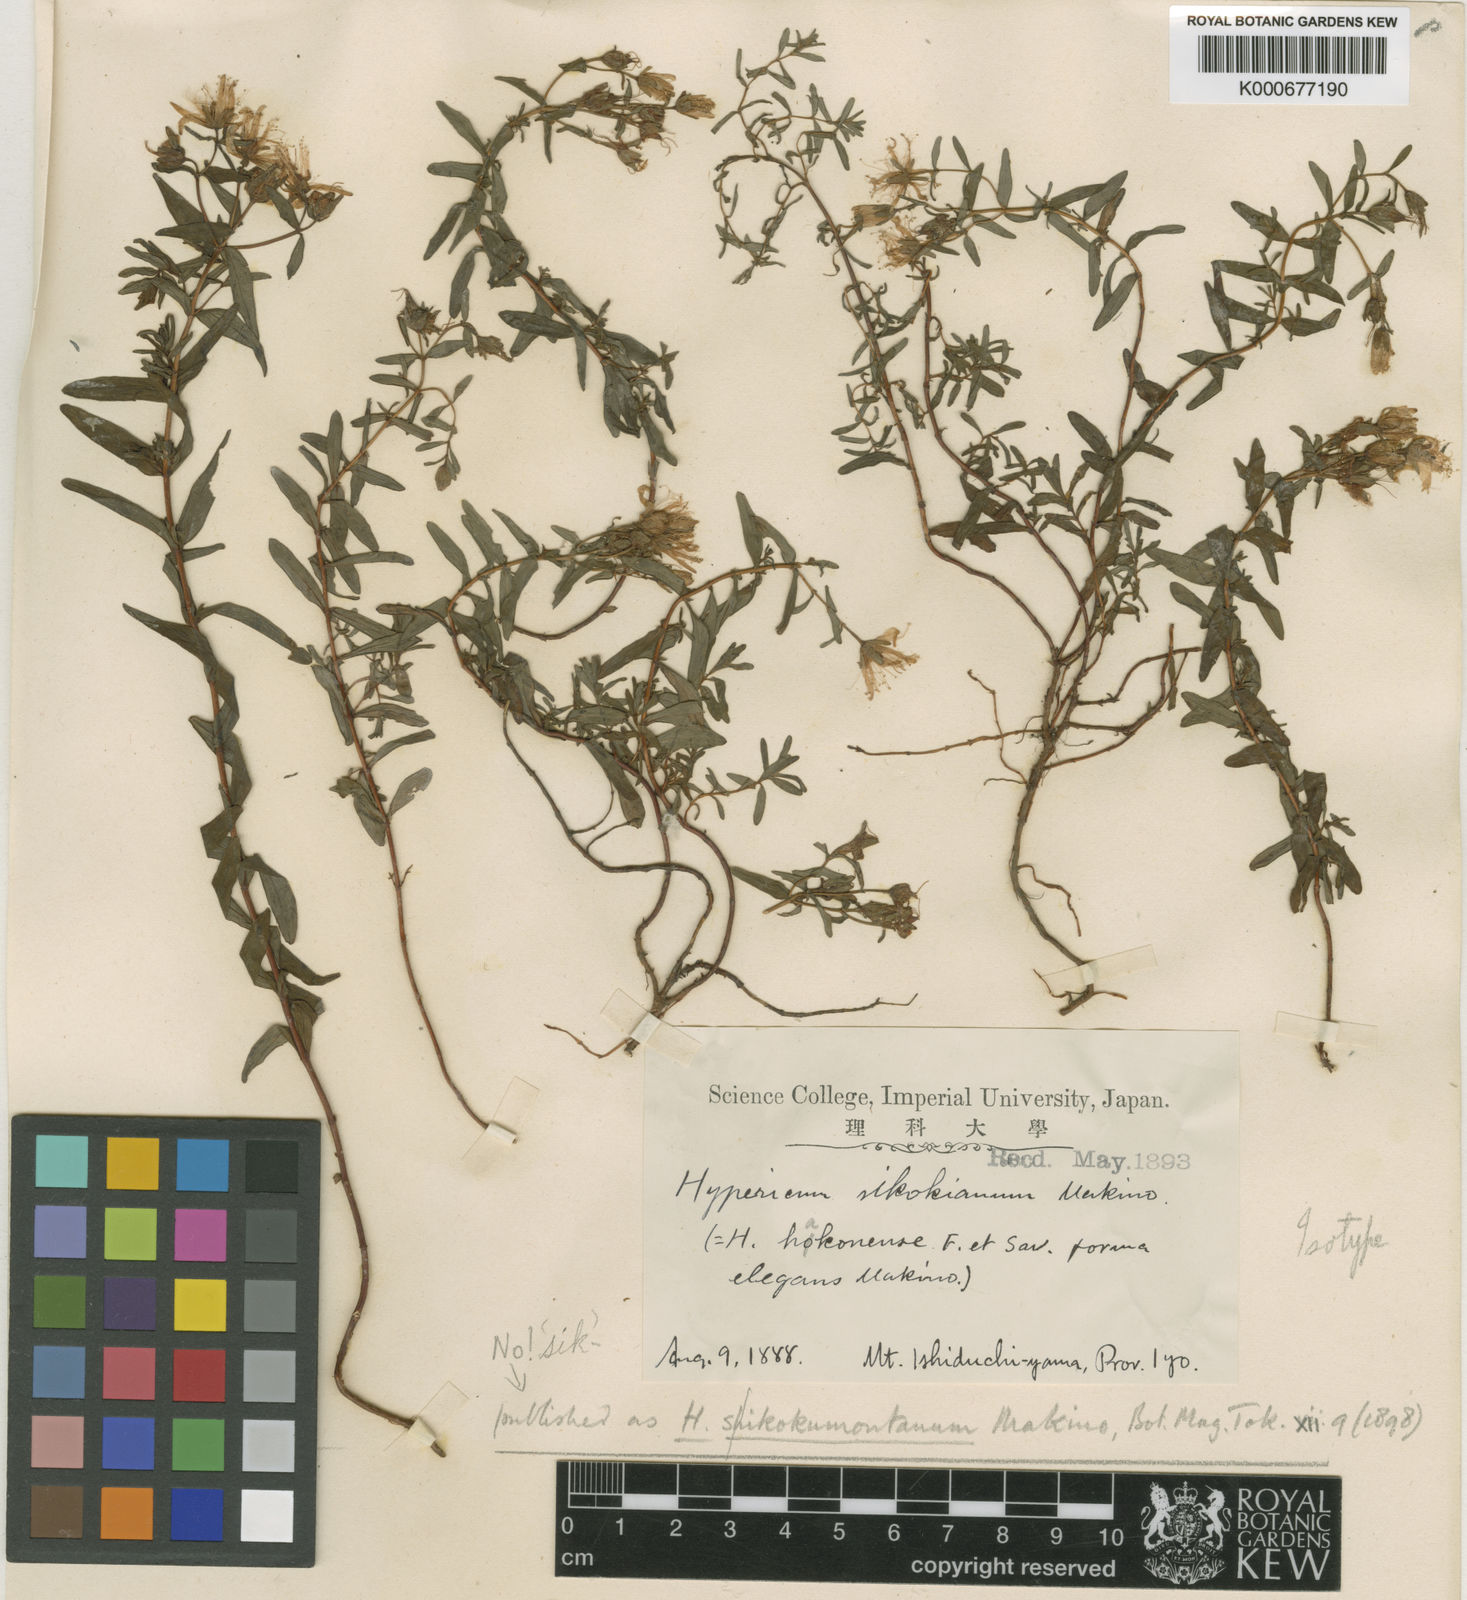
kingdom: Plantae
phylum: Tracheophyta
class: Magnoliopsida
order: Malpighiales
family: Hypericaceae
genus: Hypericum
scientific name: Hypericum sikokumontanum
